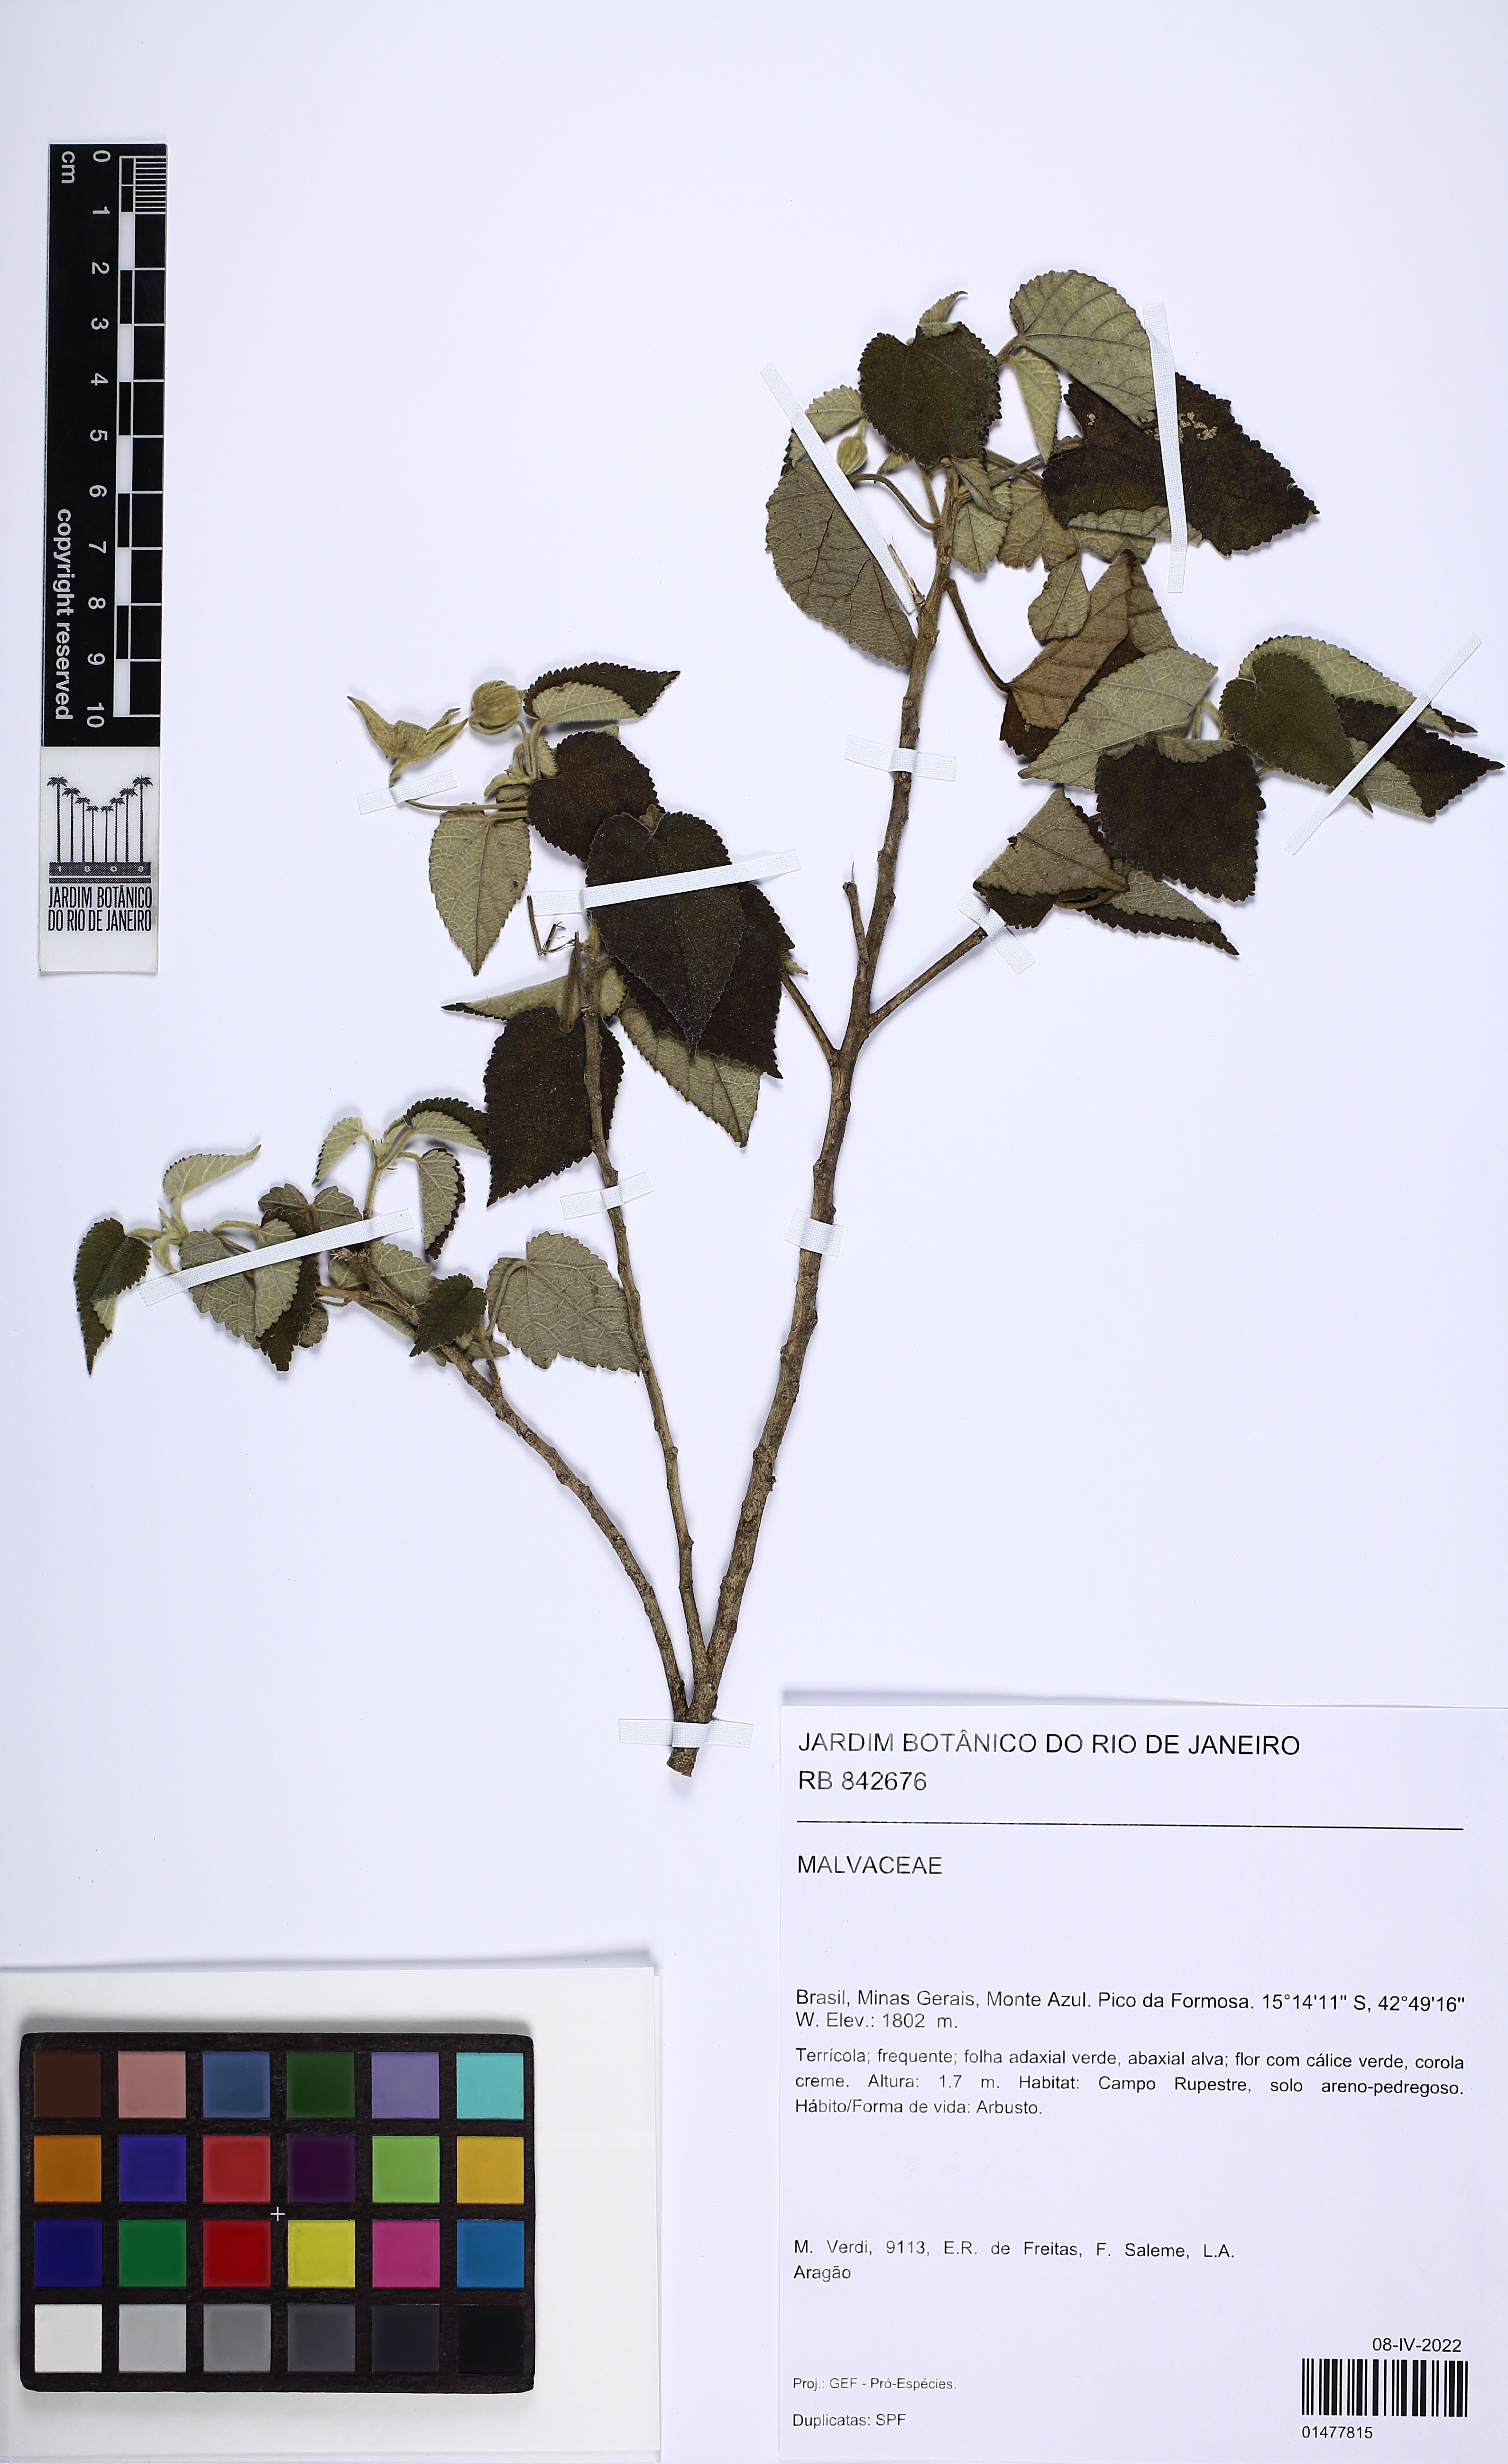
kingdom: Plantae
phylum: Tracheophyta
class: Magnoliopsida
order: Malvales
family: Malvaceae
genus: Callianthe
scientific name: Callianthe monteiroi
